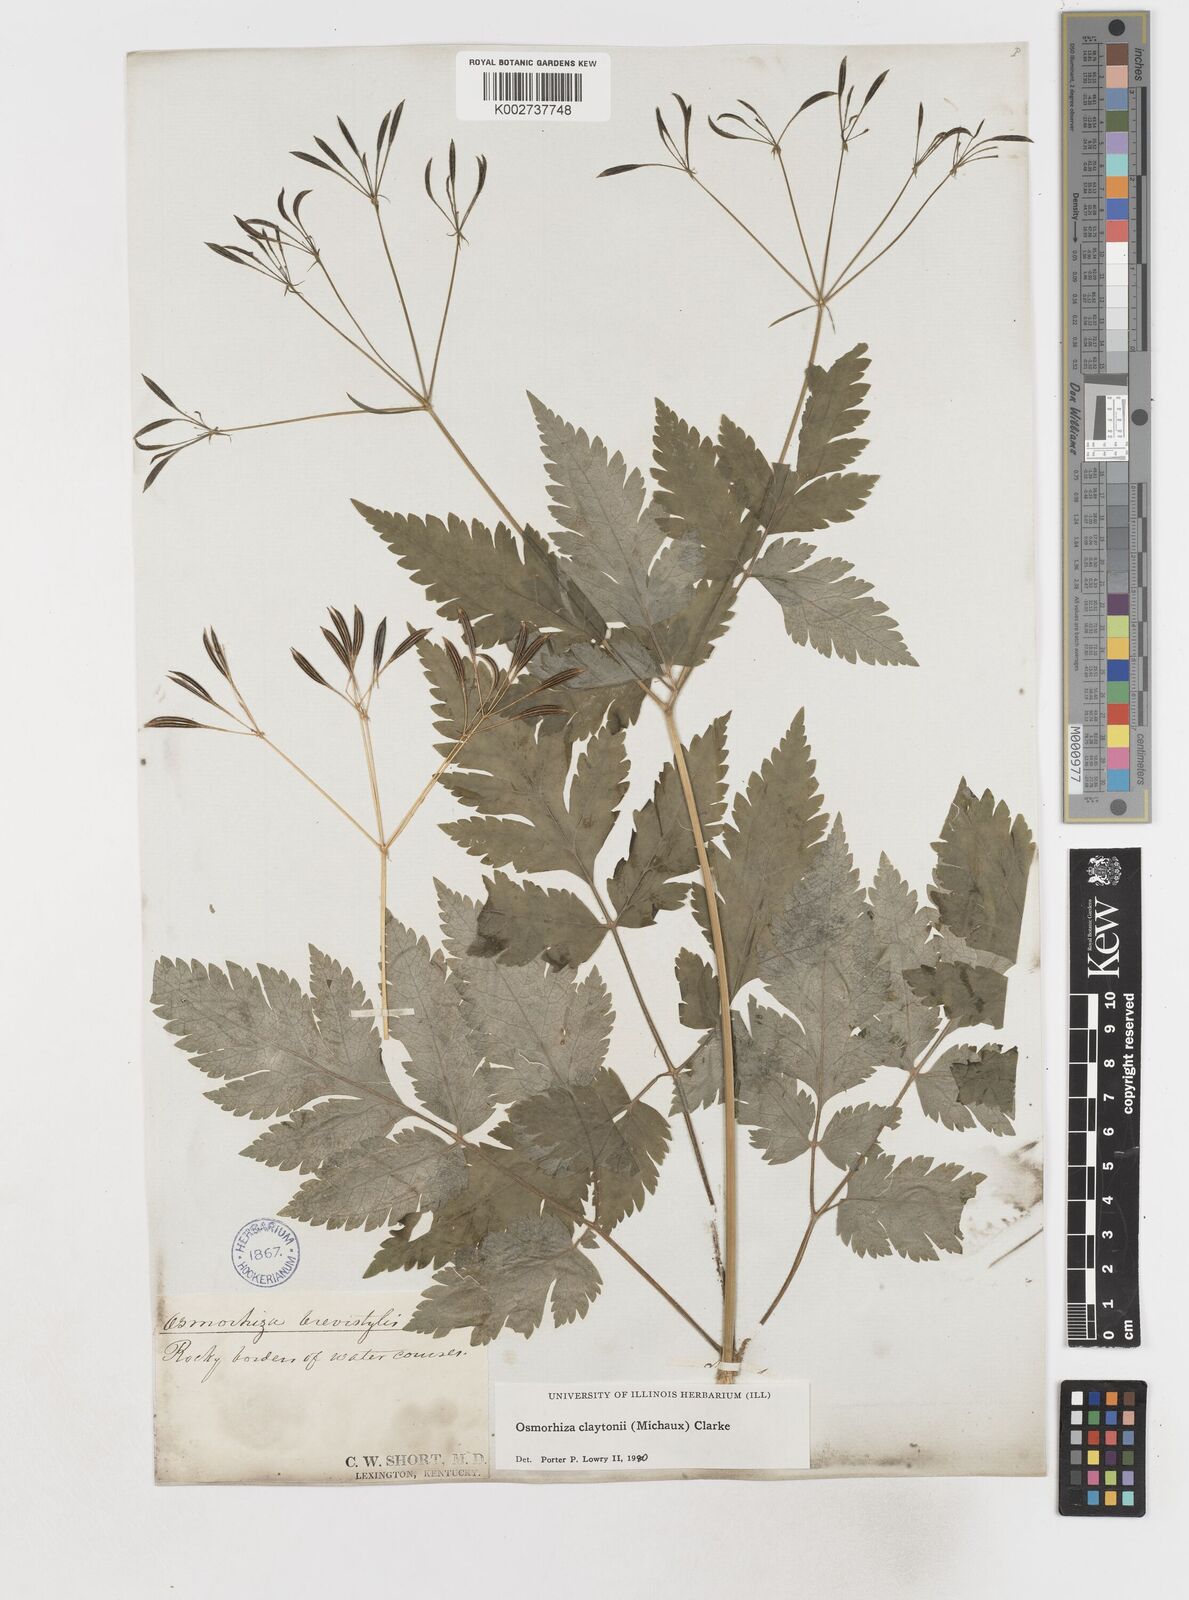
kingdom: Plantae
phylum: Tracheophyta
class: Magnoliopsida
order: Apiales
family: Apiaceae
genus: Osmorhiza
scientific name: Osmorhiza claytonii
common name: Hairy sweet cicely
